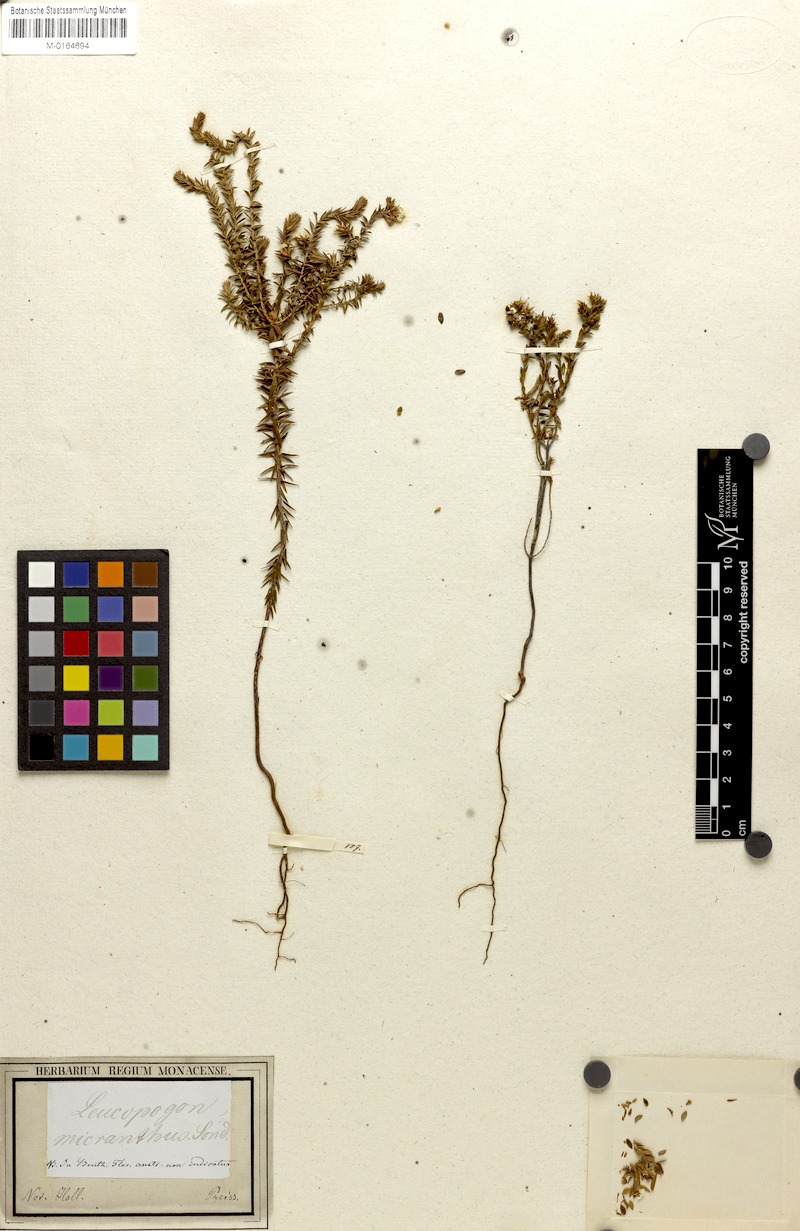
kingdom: Plantae
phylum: Tracheophyta
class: Magnoliopsida
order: Ericales
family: Ericaceae
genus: Leucopogon
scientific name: Leucopogon
